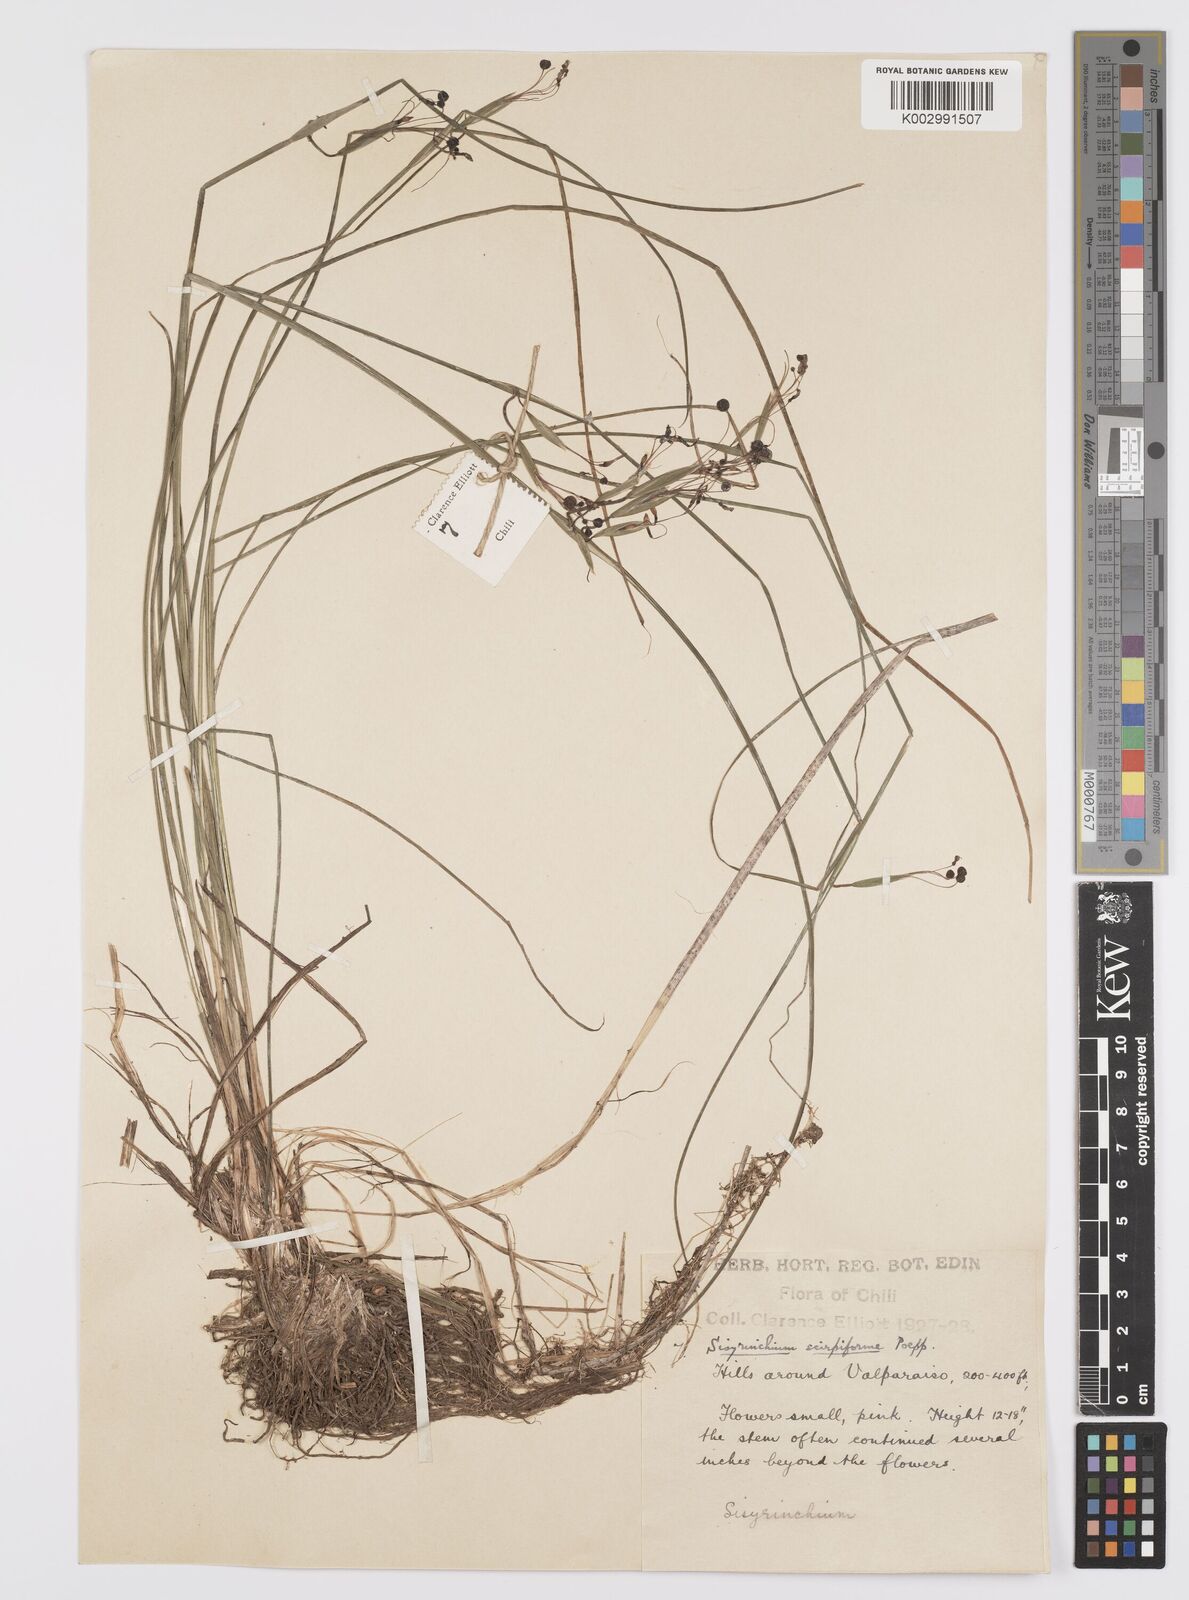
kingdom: Plantae
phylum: Tracheophyta
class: Liliopsida
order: Asparagales
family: Iridaceae
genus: Olsynium
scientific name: Olsynium junceum
